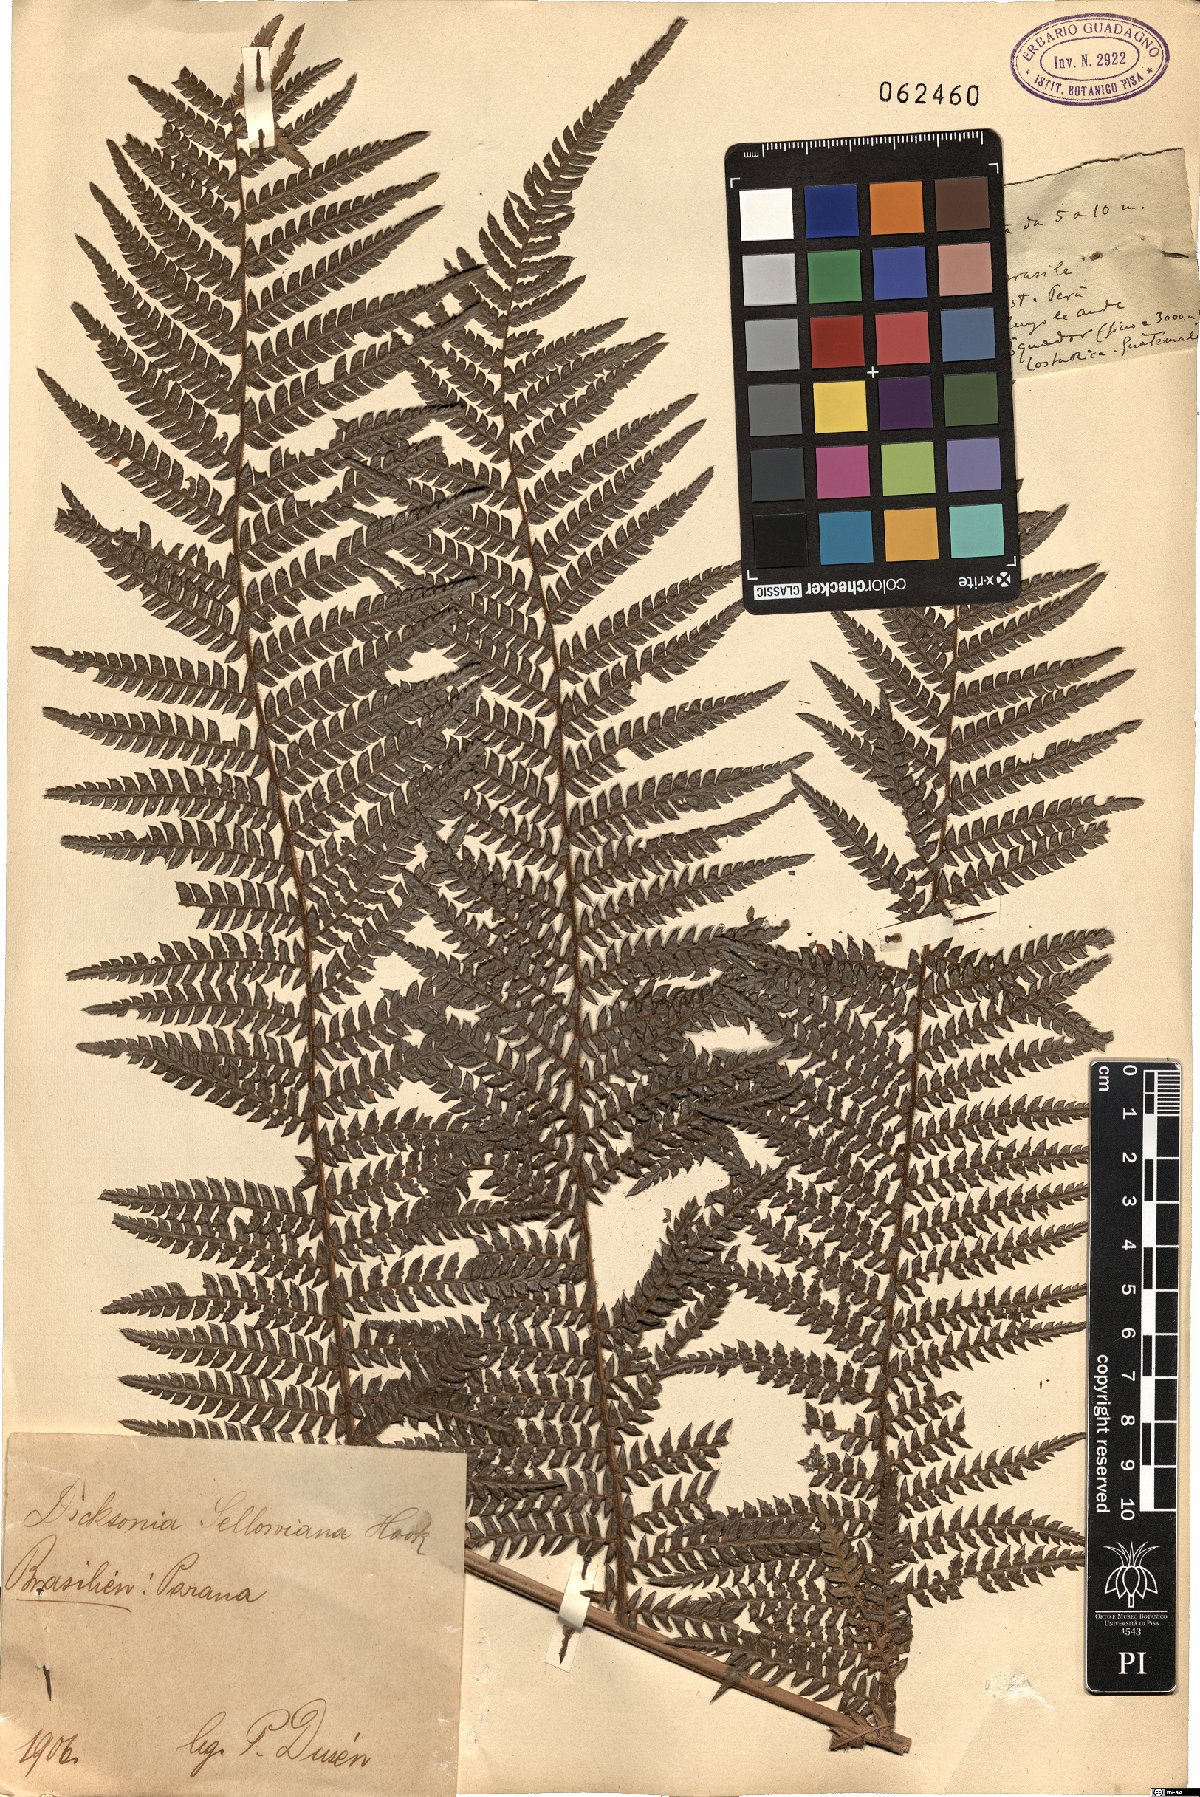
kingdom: Plantae
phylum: Tracheophyta
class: Polypodiopsida
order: Cyatheales
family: Dicksoniaceae
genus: Dicksonia
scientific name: Dicksonia sellowiana
